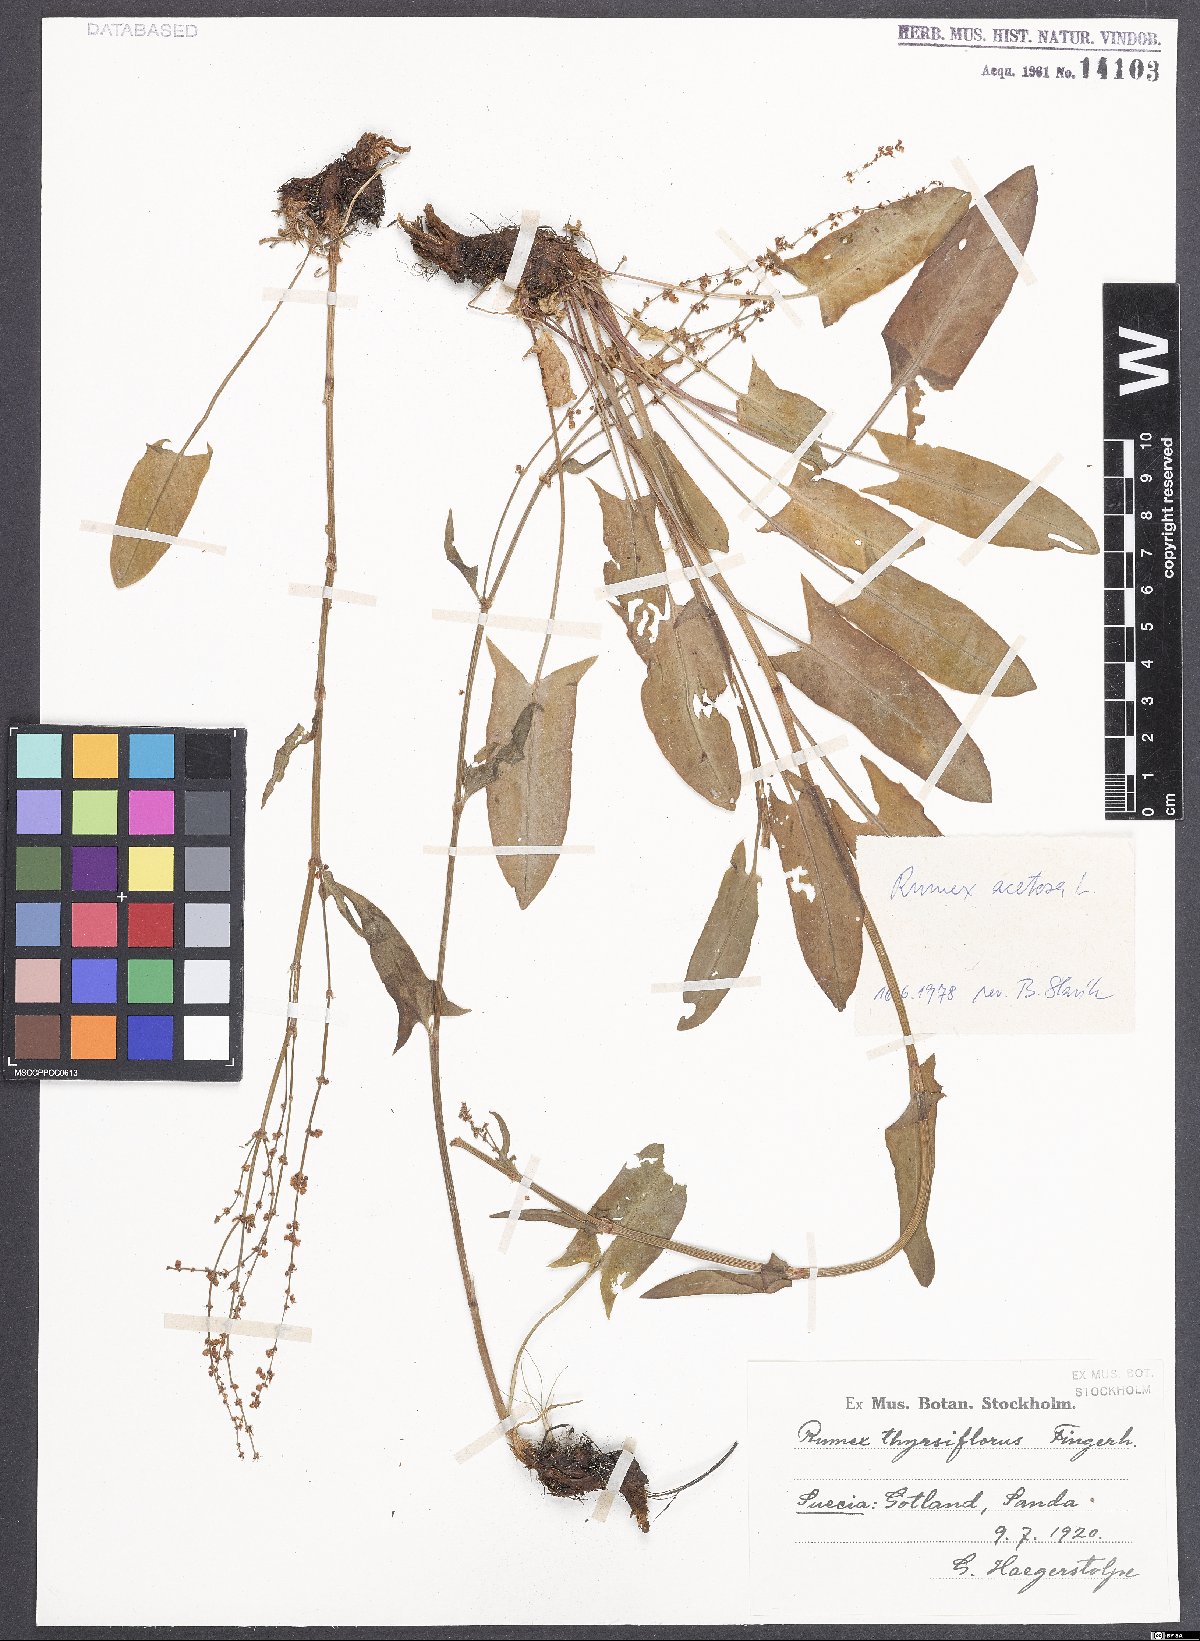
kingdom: Plantae
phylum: Tracheophyta
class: Magnoliopsida
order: Caryophyllales
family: Polygonaceae
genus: Rumex
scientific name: Rumex acetosa
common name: Garden sorrel
